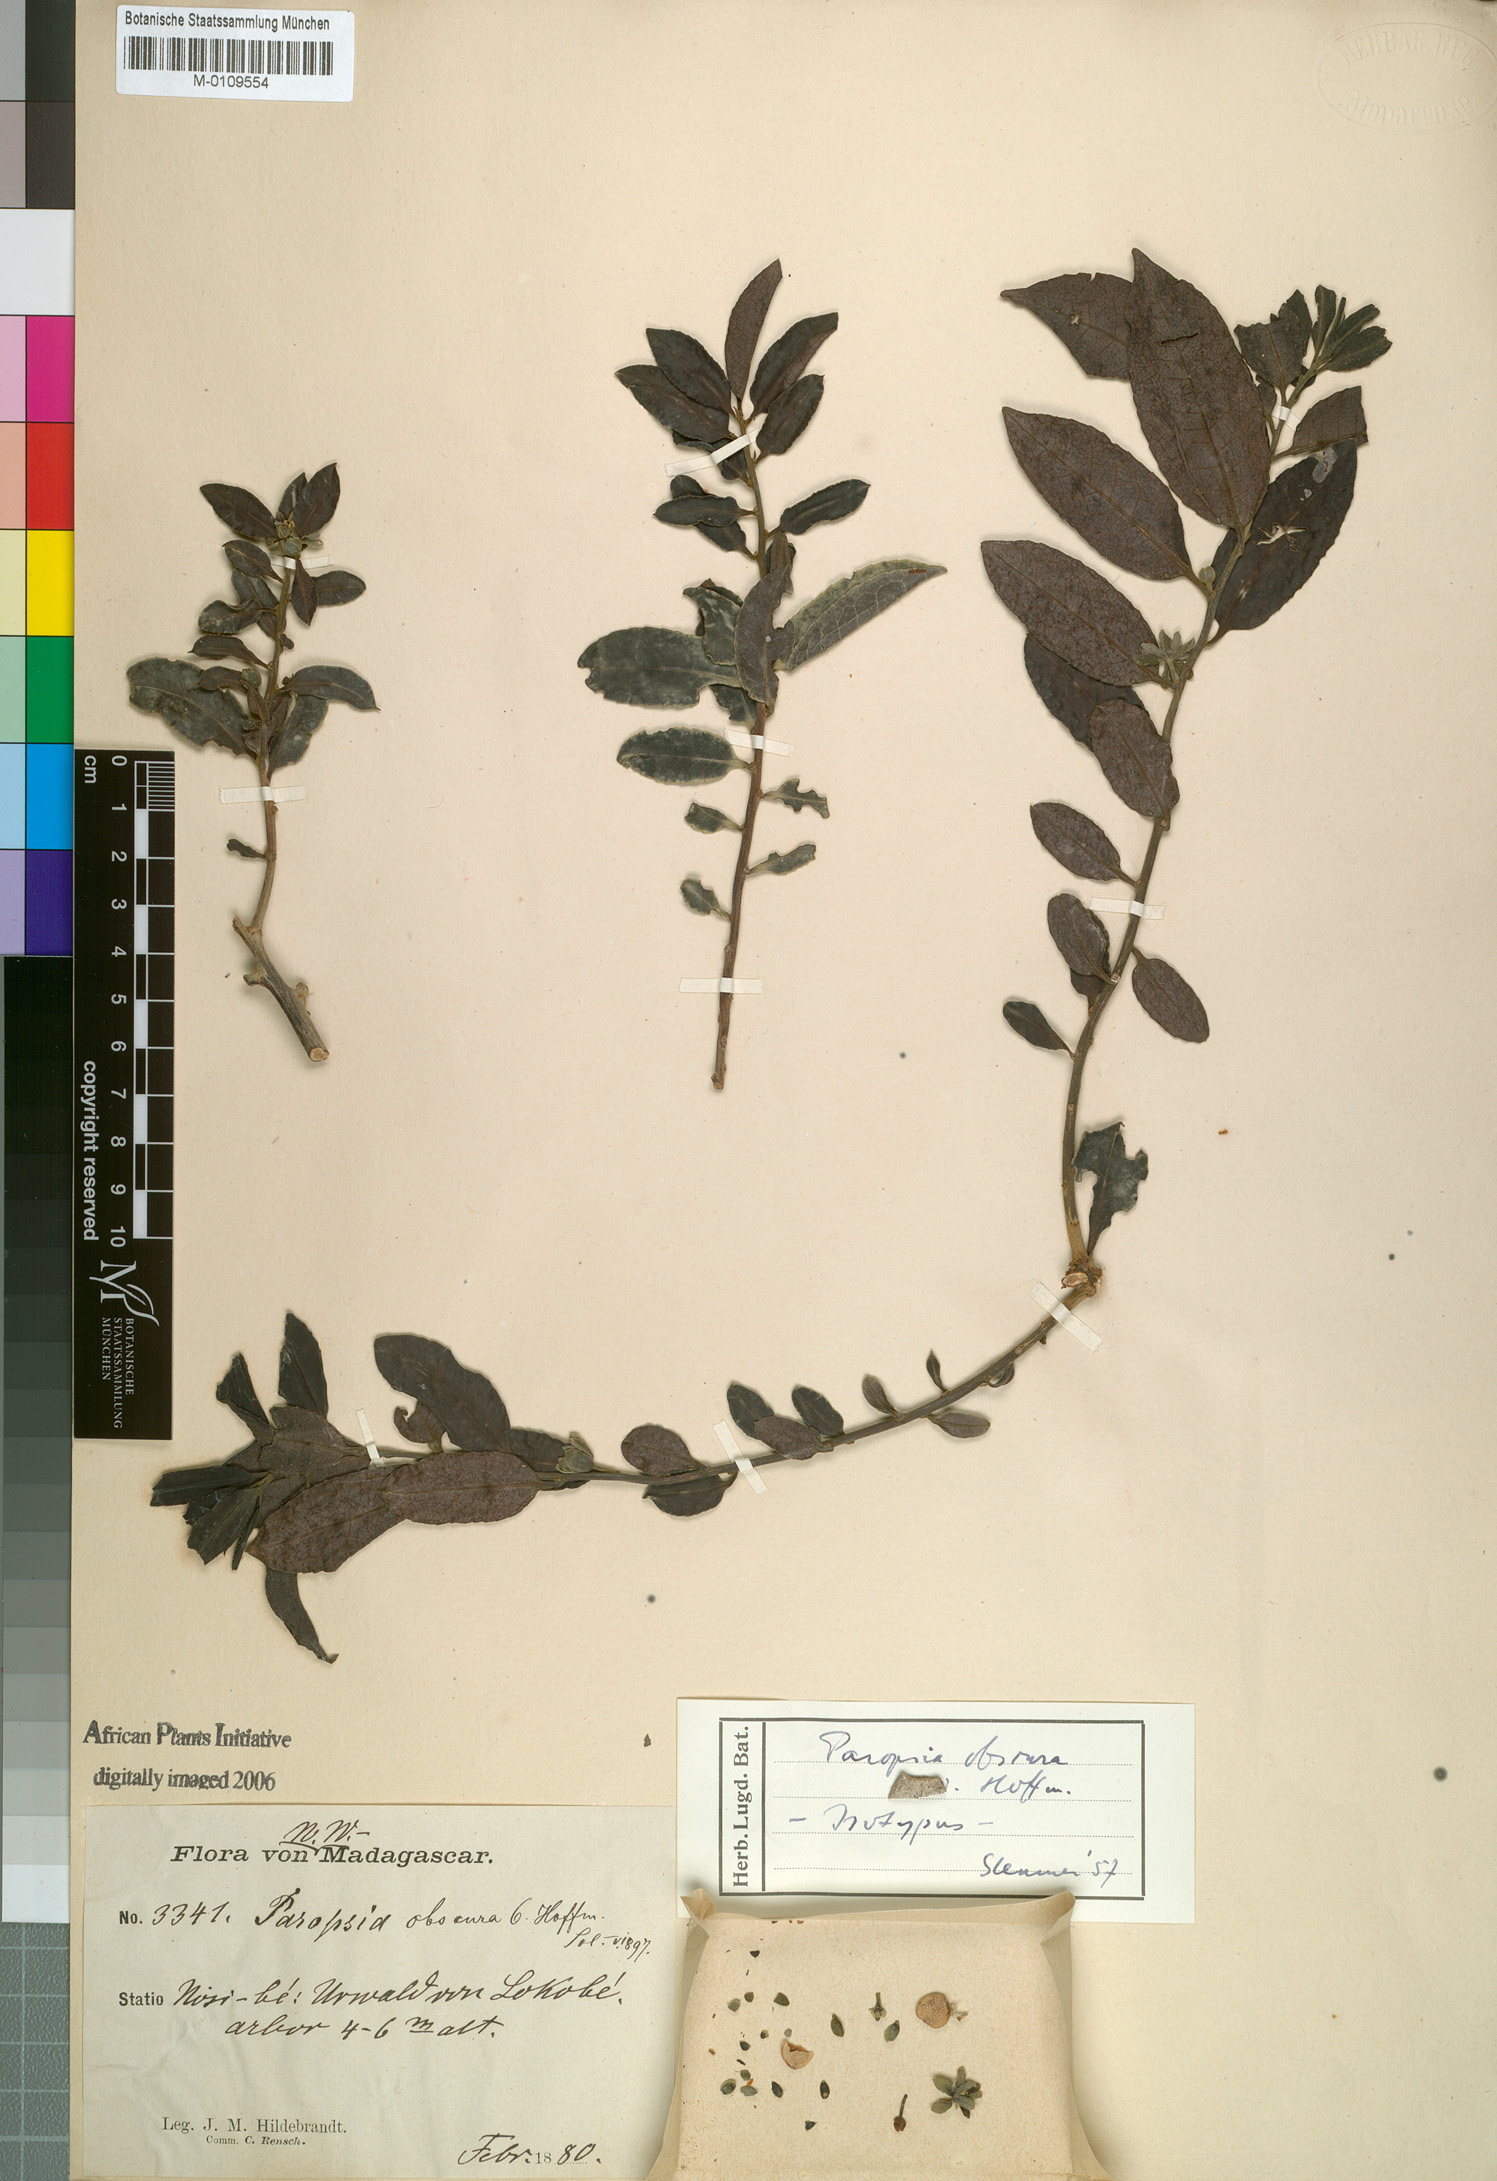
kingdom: Plantae
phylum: Tracheophyta
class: Magnoliopsida
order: Malpighiales
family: Passifloraceae
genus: Paropsia
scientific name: Paropsia obscura
